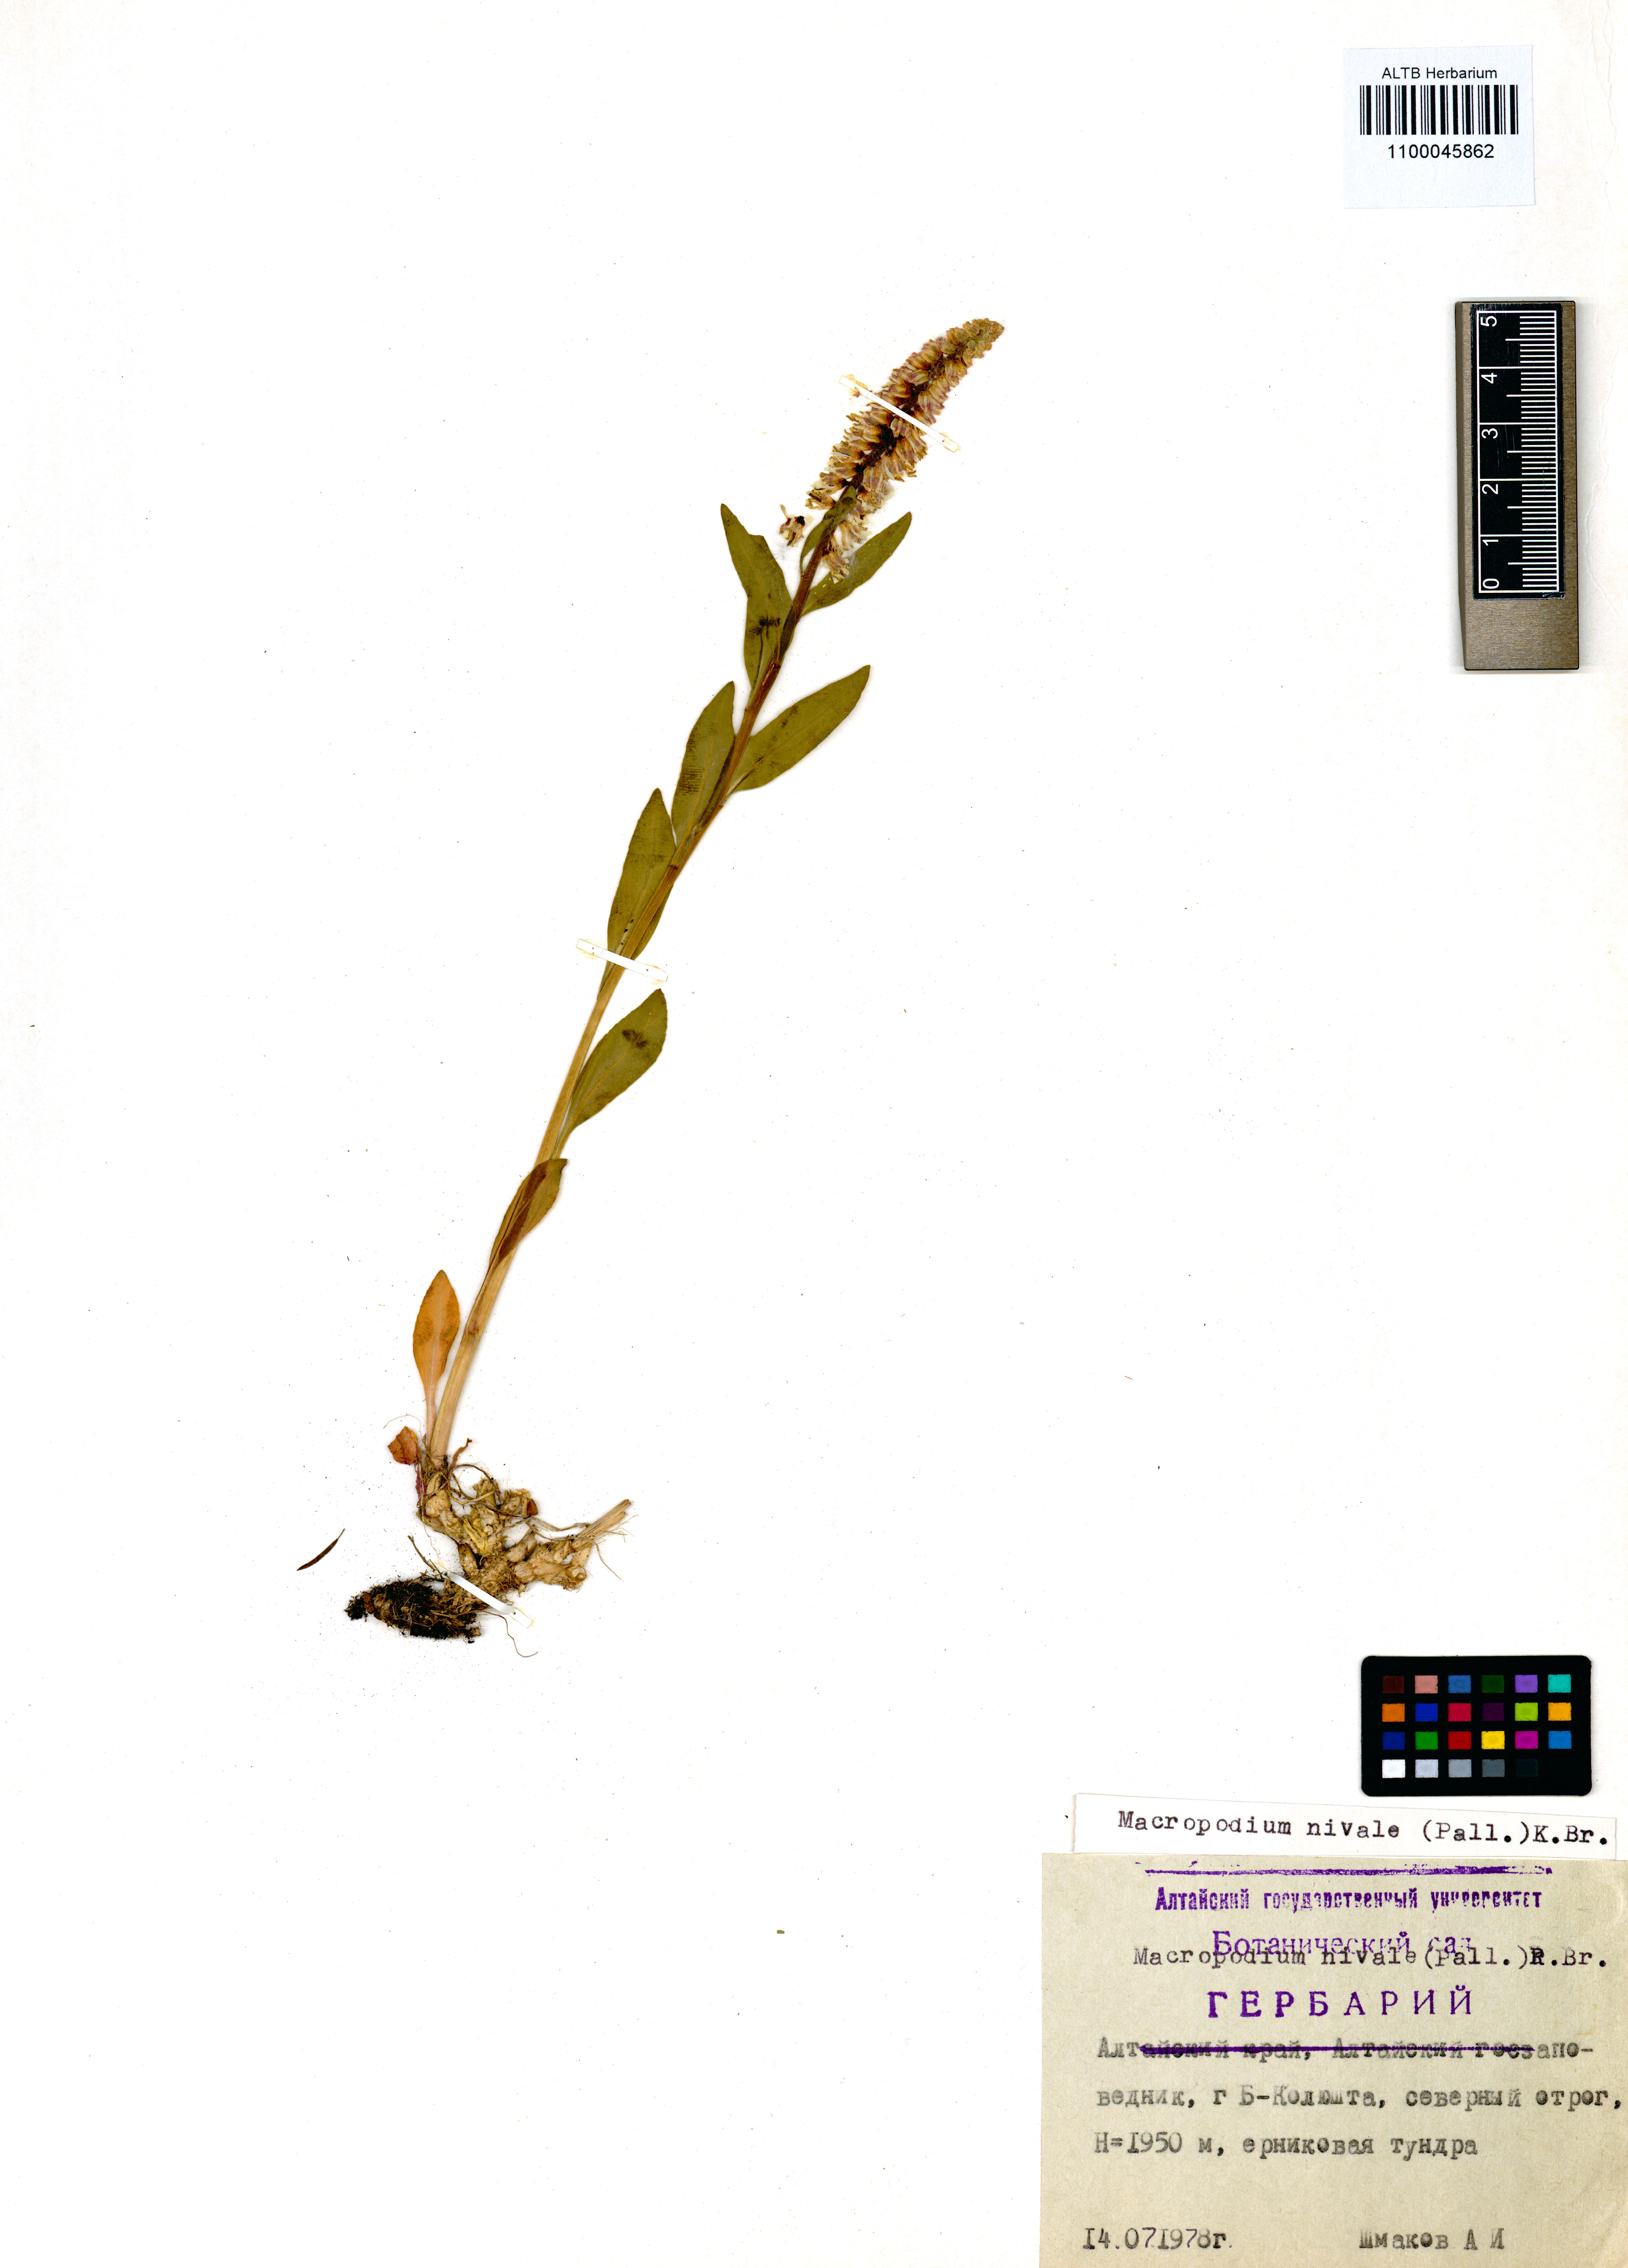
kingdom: Plantae
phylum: Tracheophyta
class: Magnoliopsida
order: Brassicales
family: Brassicaceae
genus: Macropodium
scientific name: Macropodium nivale
